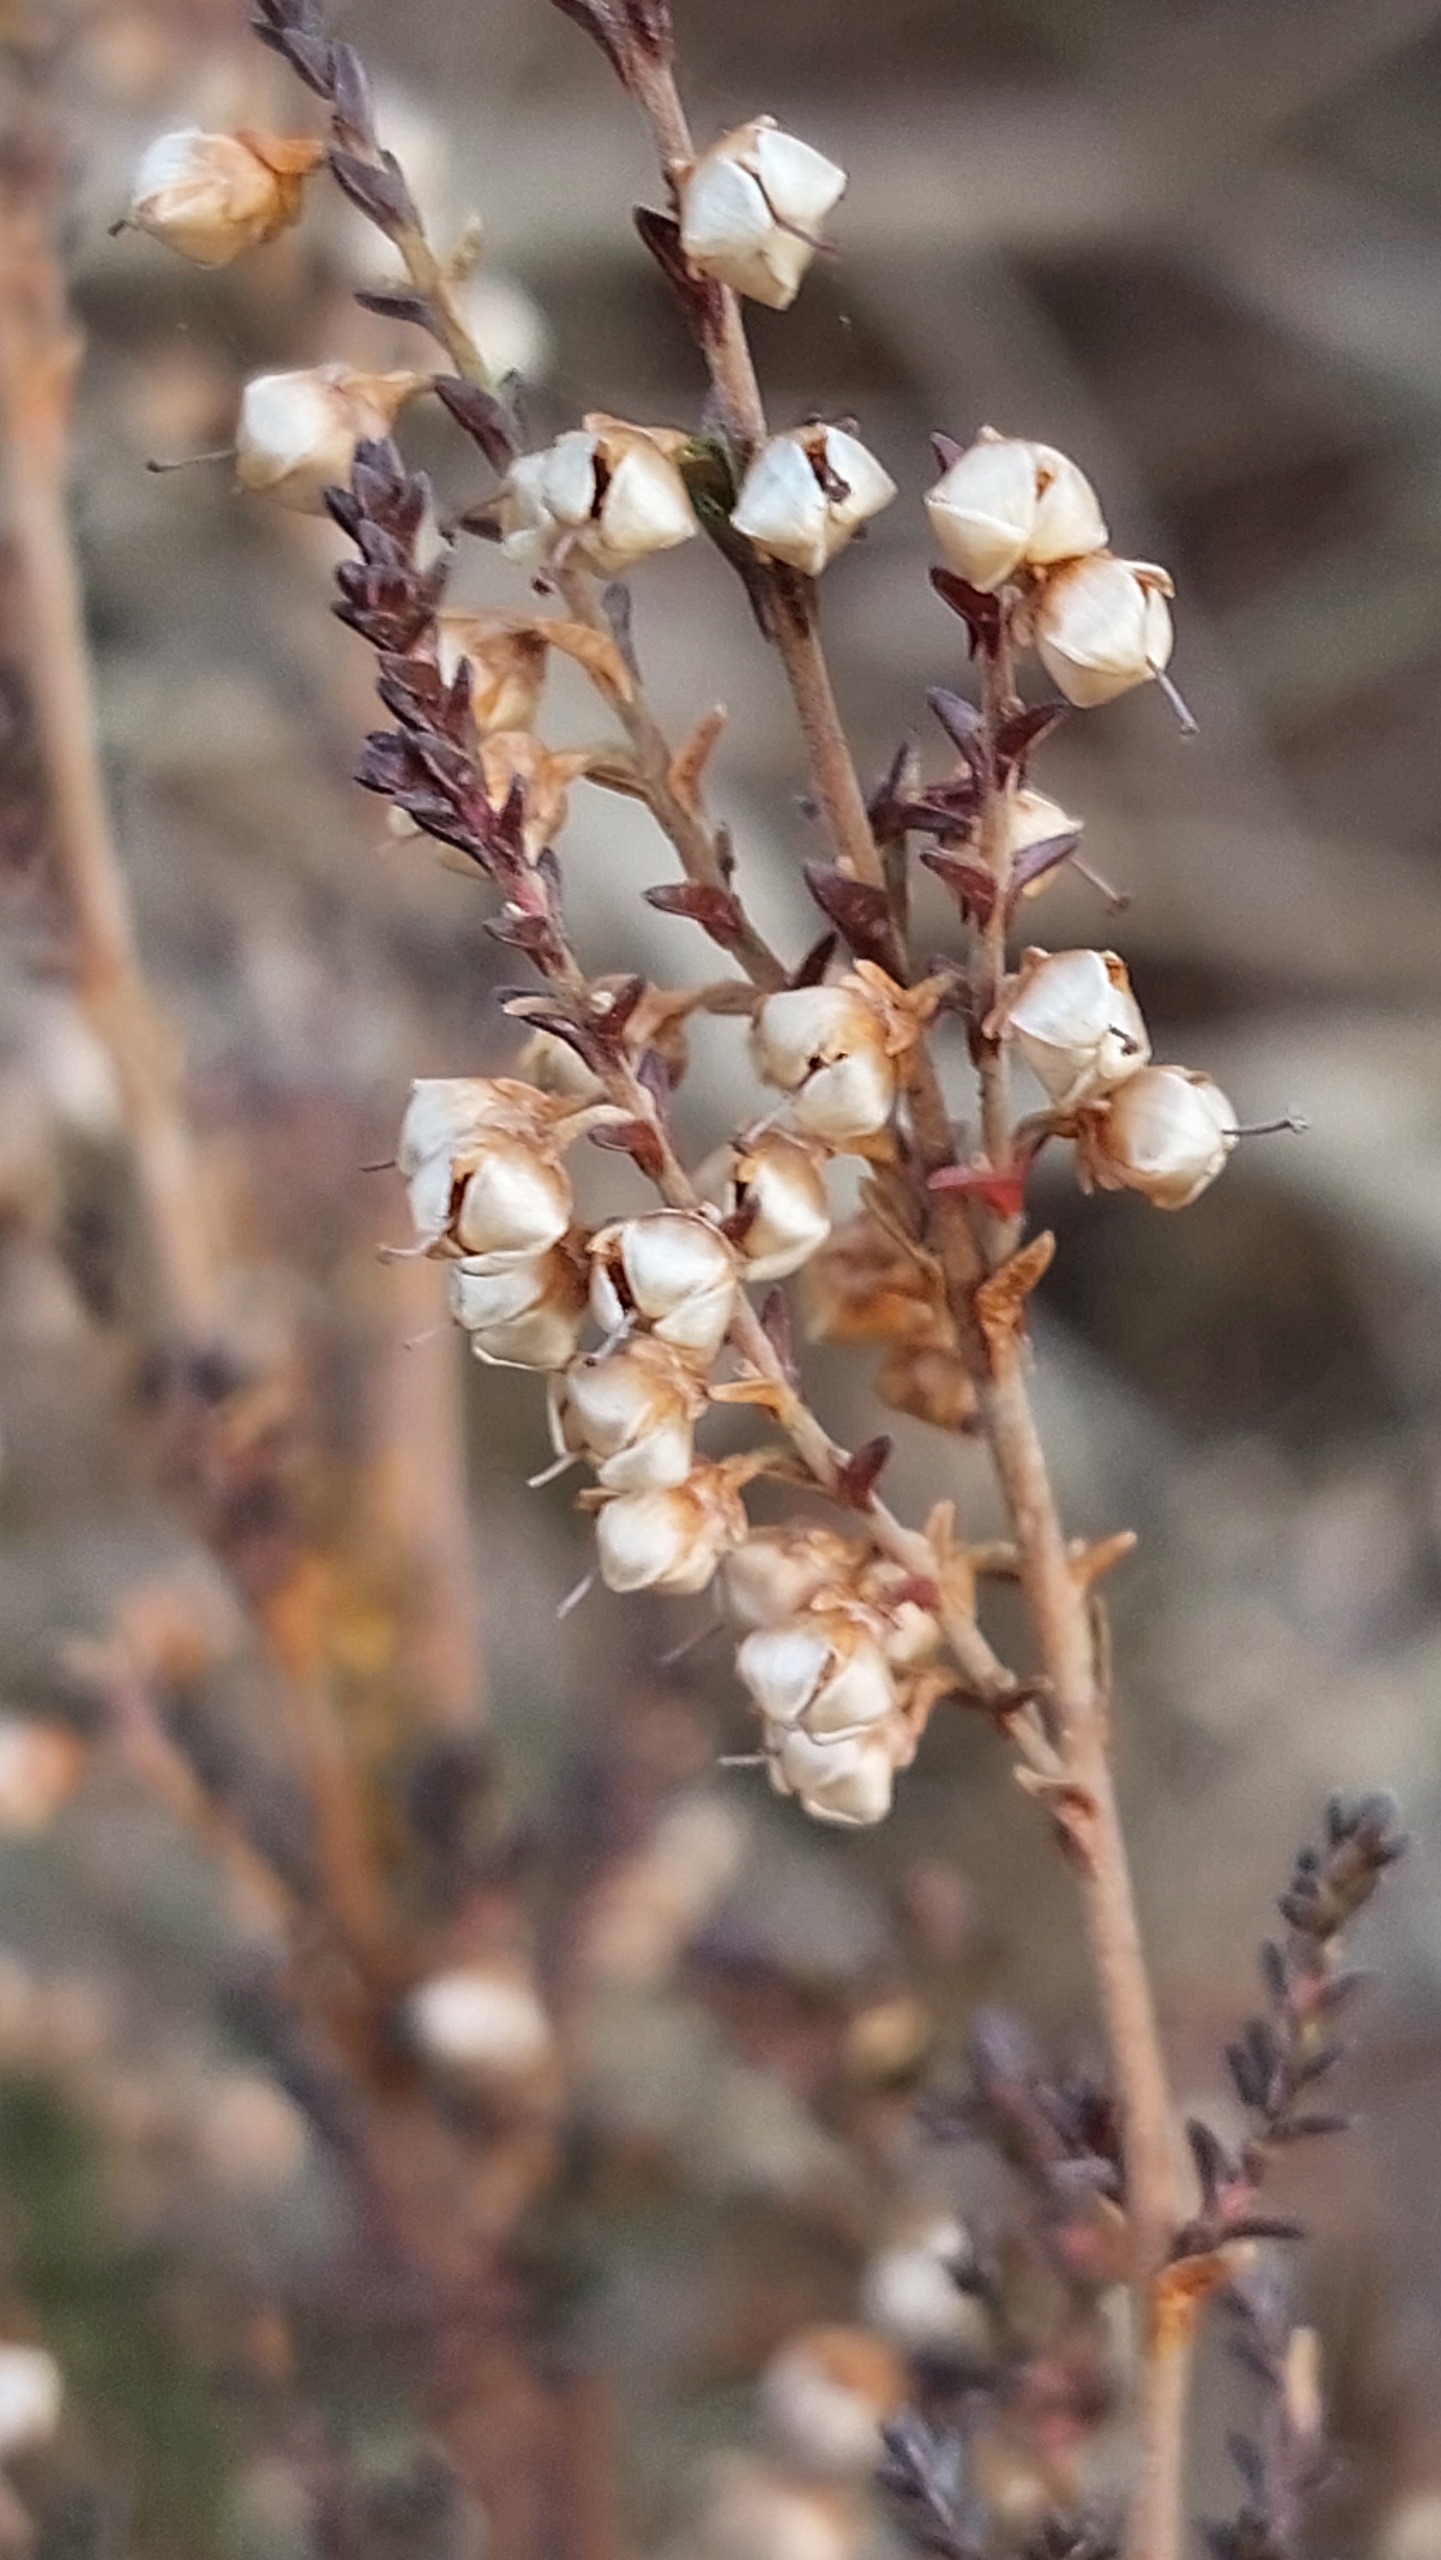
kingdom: Plantae
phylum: Tracheophyta
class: Magnoliopsida
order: Ericales
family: Ericaceae
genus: Calluna
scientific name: Calluna vulgaris
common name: Hedelyng
